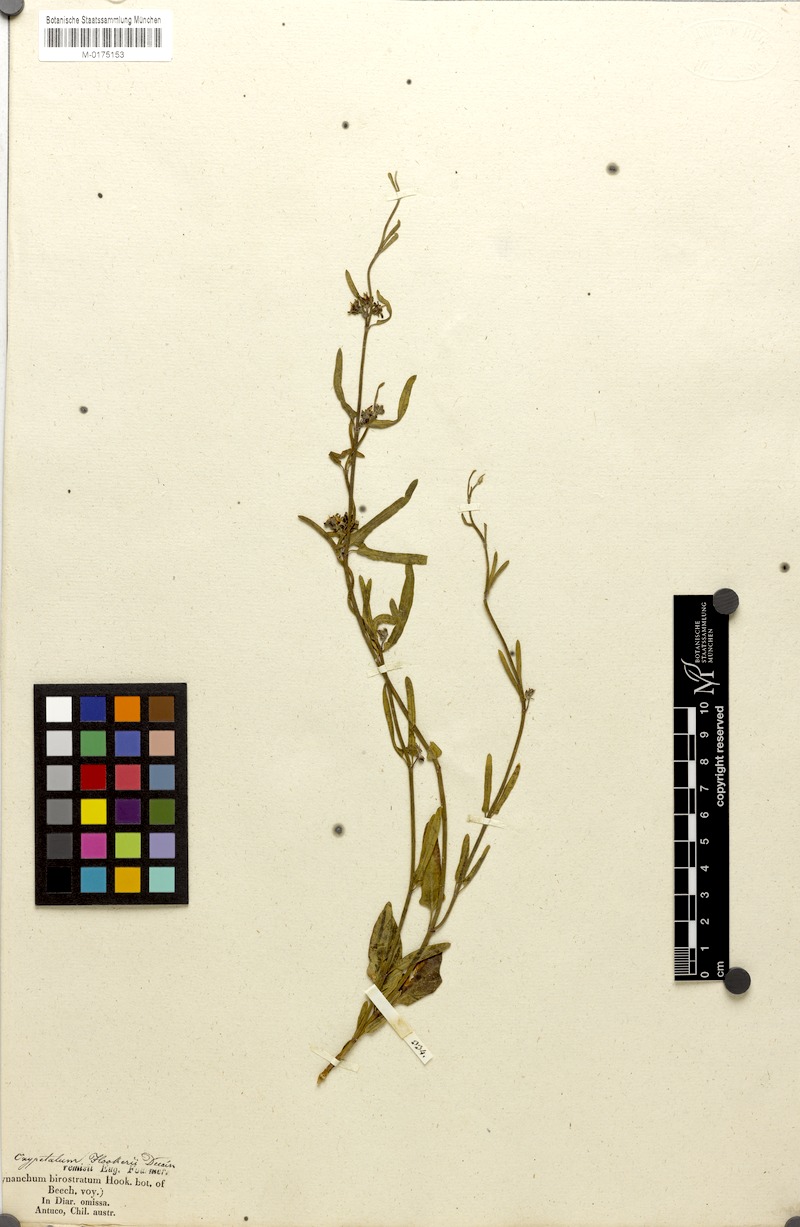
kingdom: Plantae
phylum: Tracheophyta
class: Magnoliopsida
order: Gentianales
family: Apocynaceae
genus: Tweedia
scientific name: Tweedia birostrata
